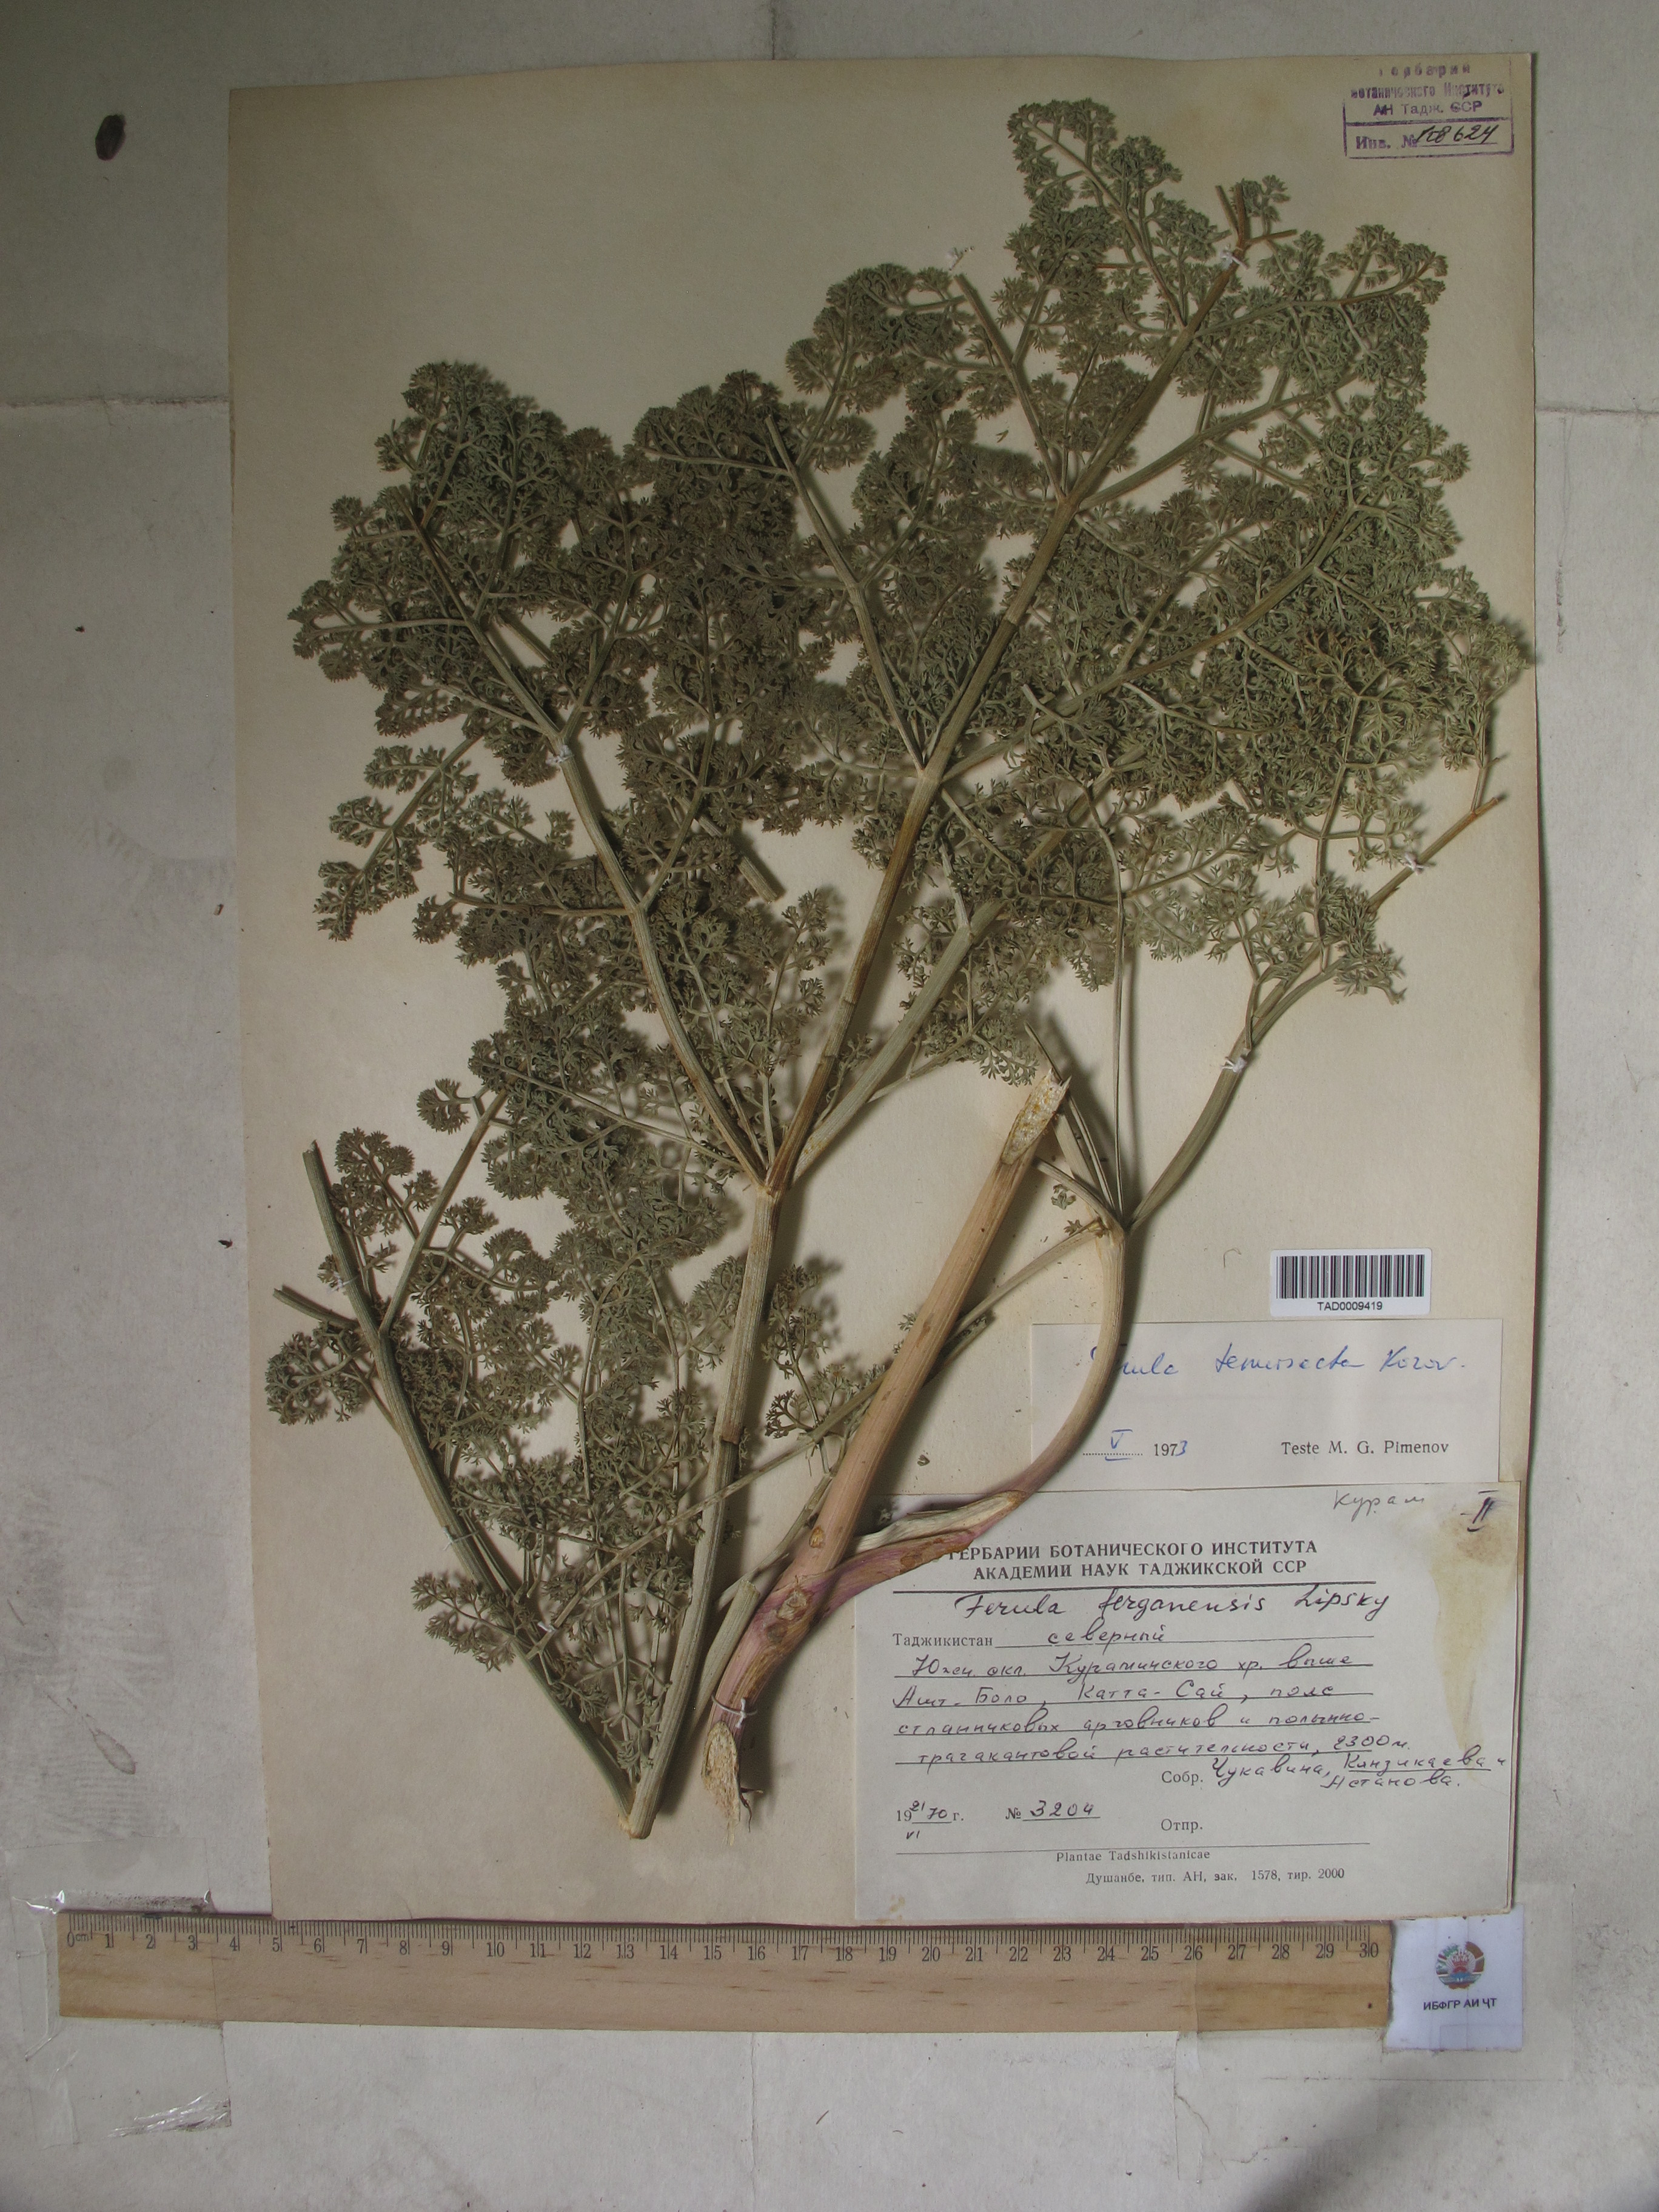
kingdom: Plantae
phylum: Tracheophyta
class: Magnoliopsida
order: Apiales
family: Apiaceae
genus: Ferula
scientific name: Ferula tenuisecta
